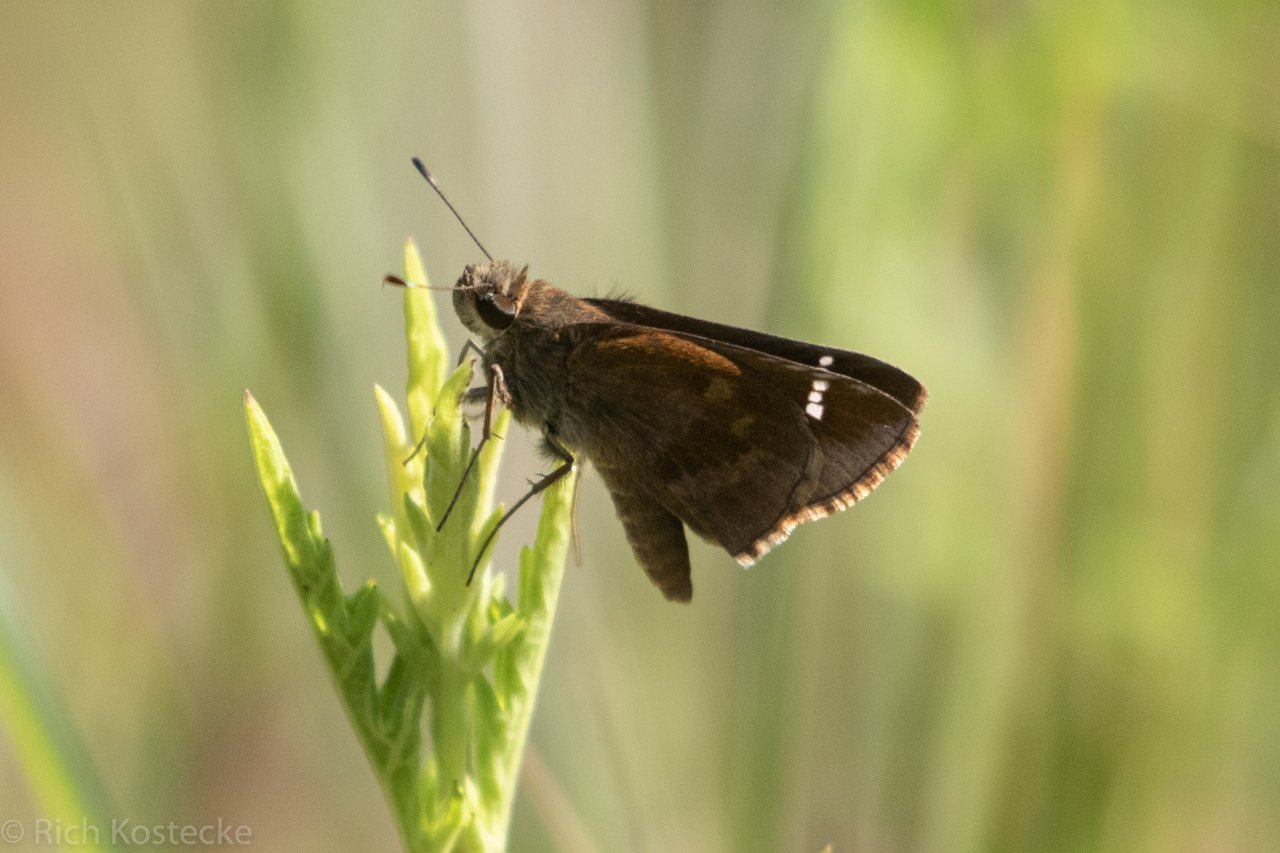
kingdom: Animalia
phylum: Arthropoda
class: Insecta
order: Lepidoptera
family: Hesperiidae
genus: Lerema
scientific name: Lerema accius
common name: Clouded Skipper
